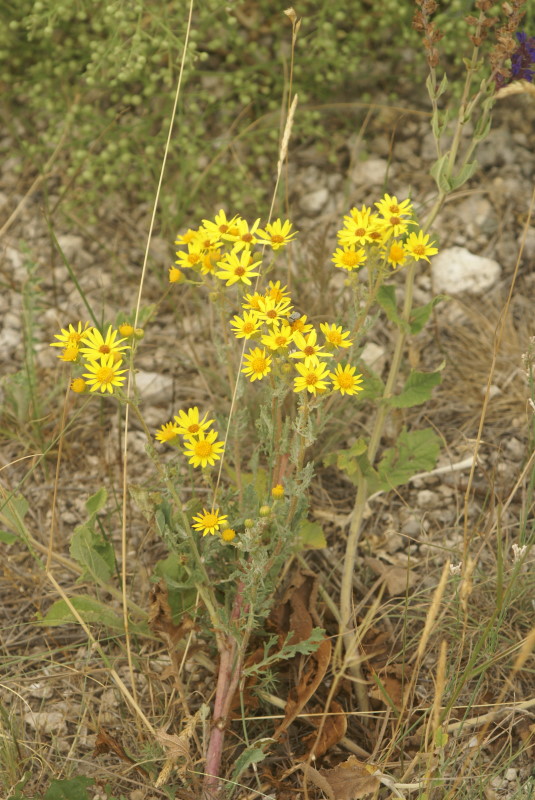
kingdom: Plantae
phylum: Tracheophyta
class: Magnoliopsida
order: Asterales
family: Asteraceae
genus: Jacobaea
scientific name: Jacobaea vulgaris
